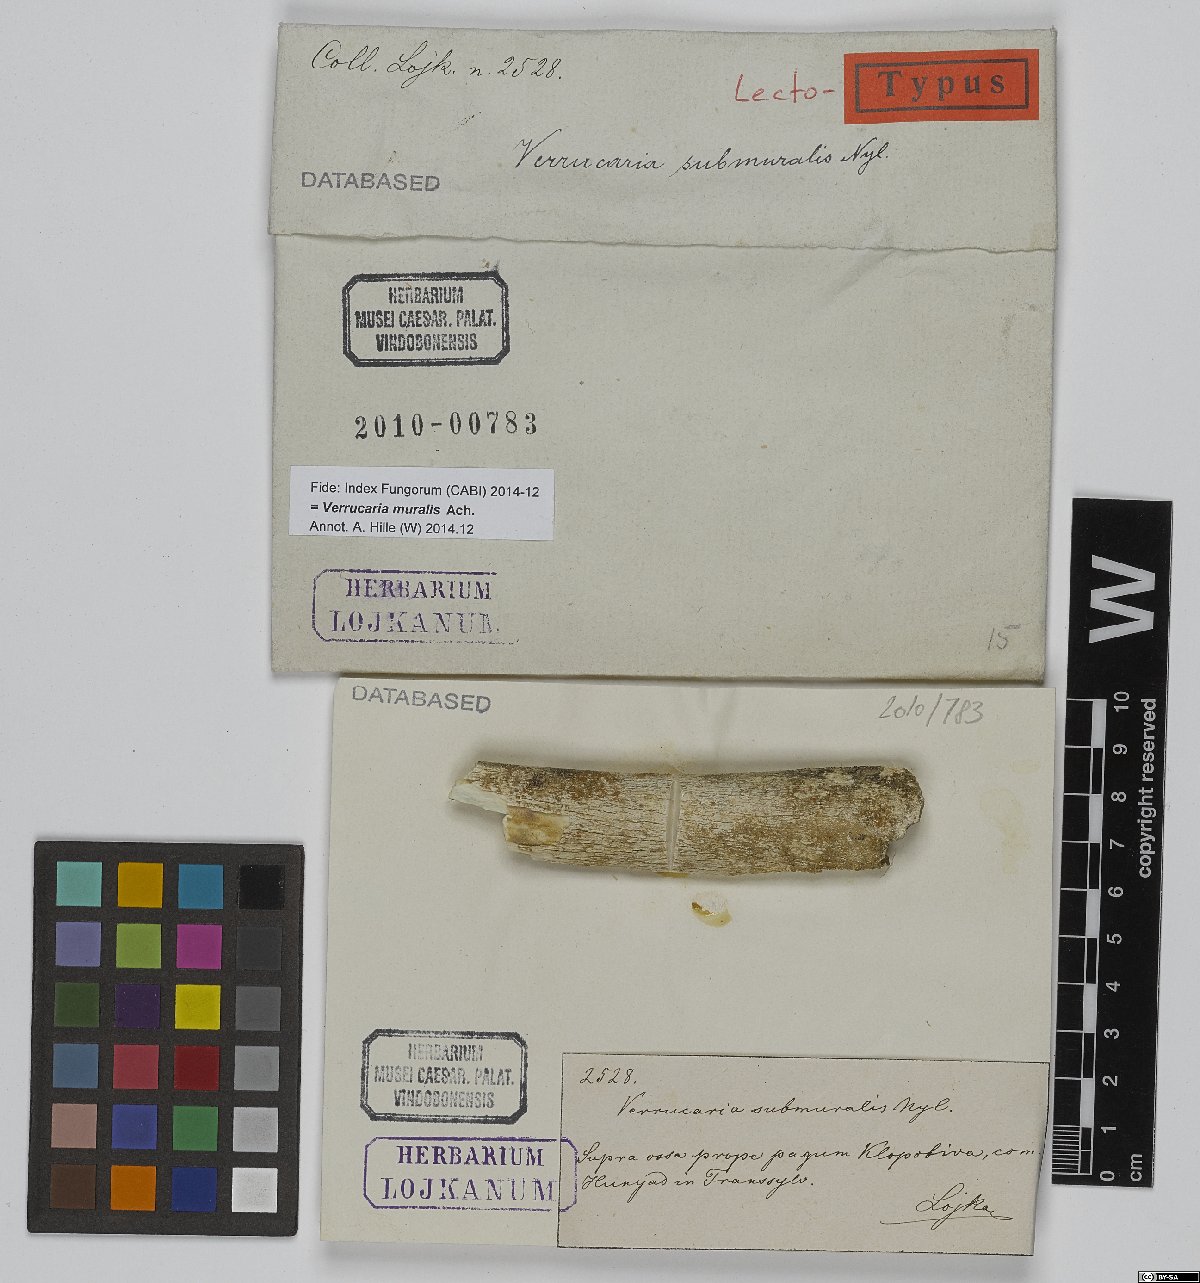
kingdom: Fungi
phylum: Ascomycota
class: Eurotiomycetes
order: Verrucariales
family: Verrucariaceae
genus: Verrucaria
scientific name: Verrucaria muralis
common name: Wall speck lichen
